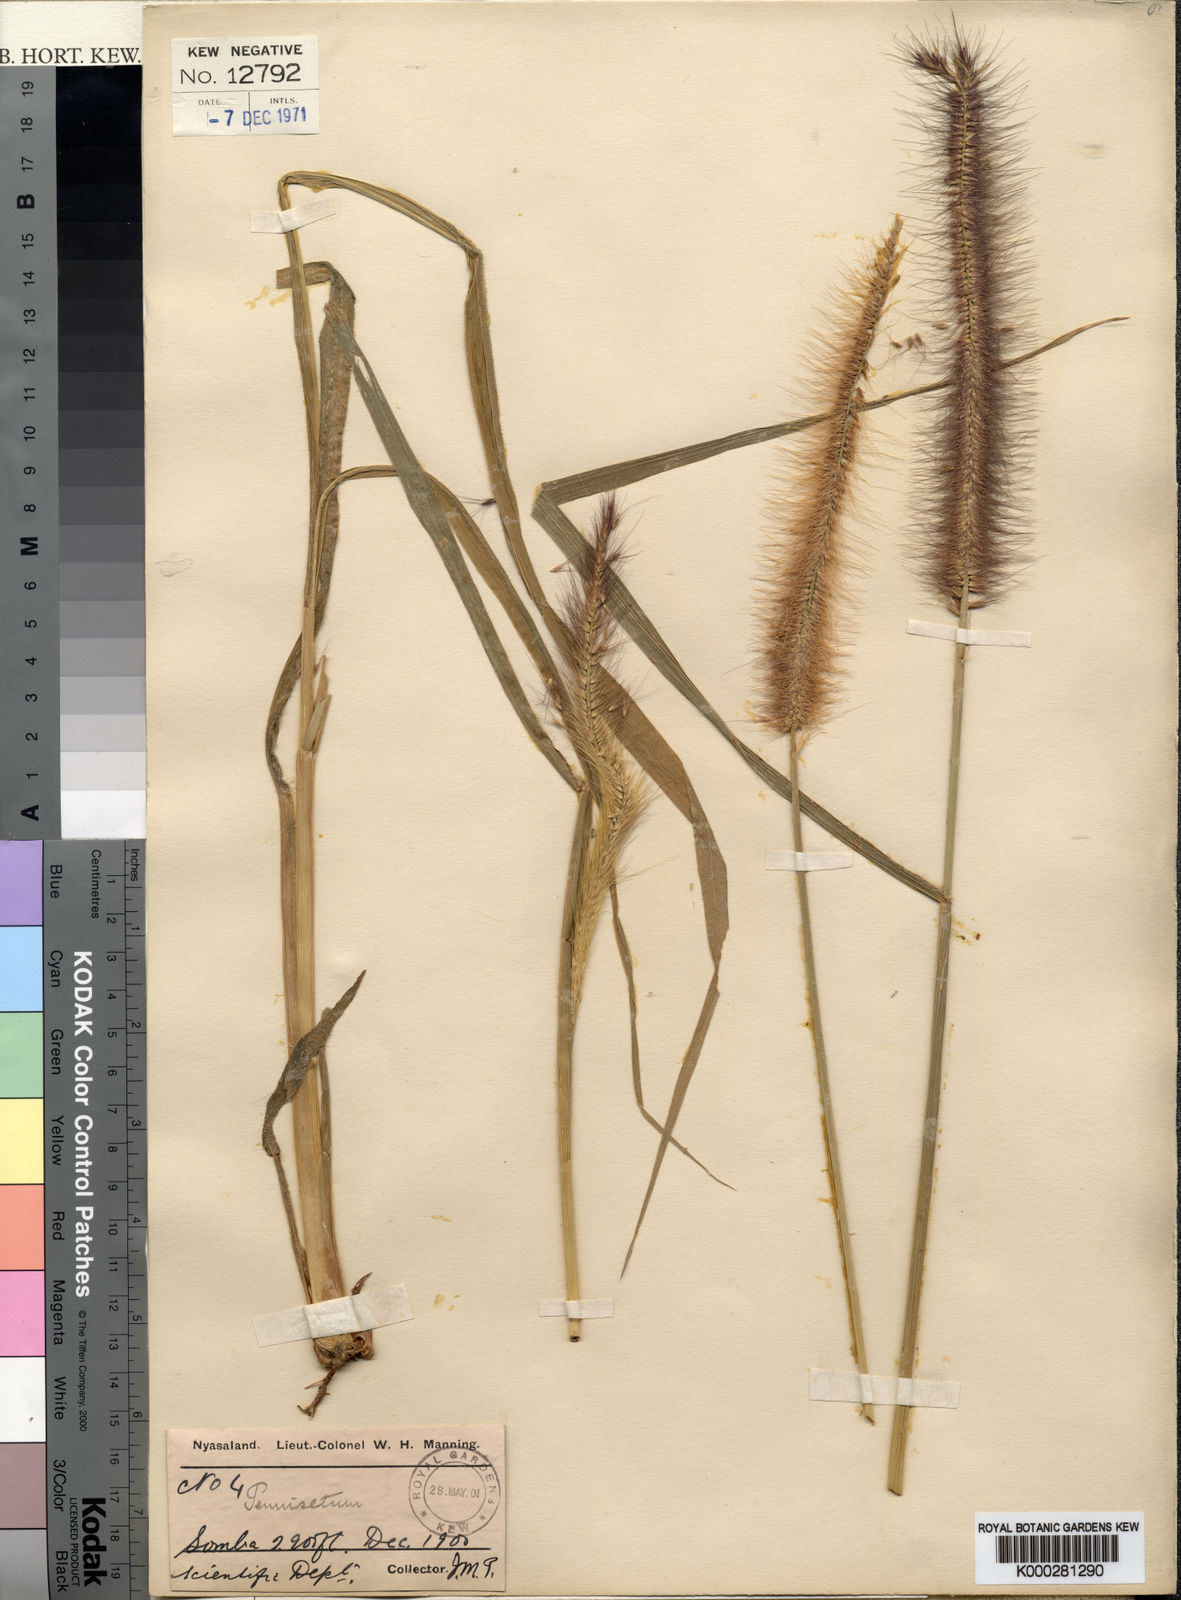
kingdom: Plantae
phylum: Tracheophyta
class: Liliopsida
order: Poales
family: Poaceae
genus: Cenchrus
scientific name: Cenchrus setosus
